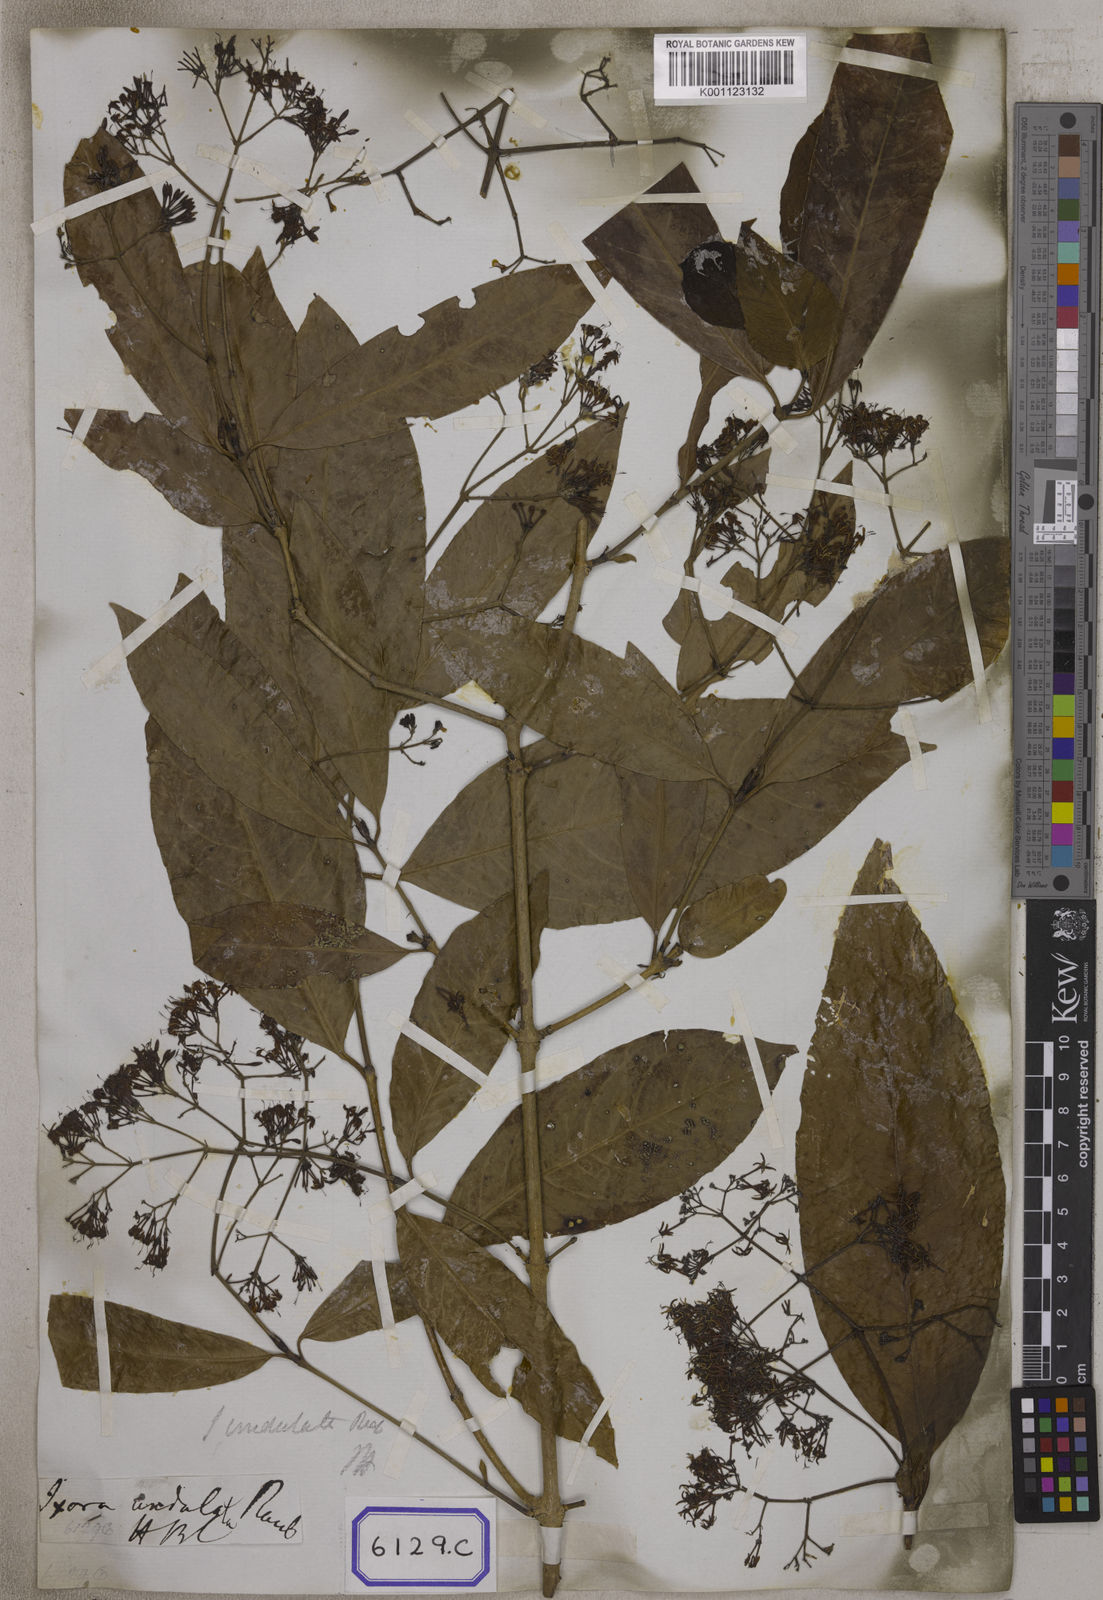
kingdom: Plantae
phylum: Tracheophyta
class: Magnoliopsida
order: Gentianales
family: Rubiaceae
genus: Ixora
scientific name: Ixora undulata
